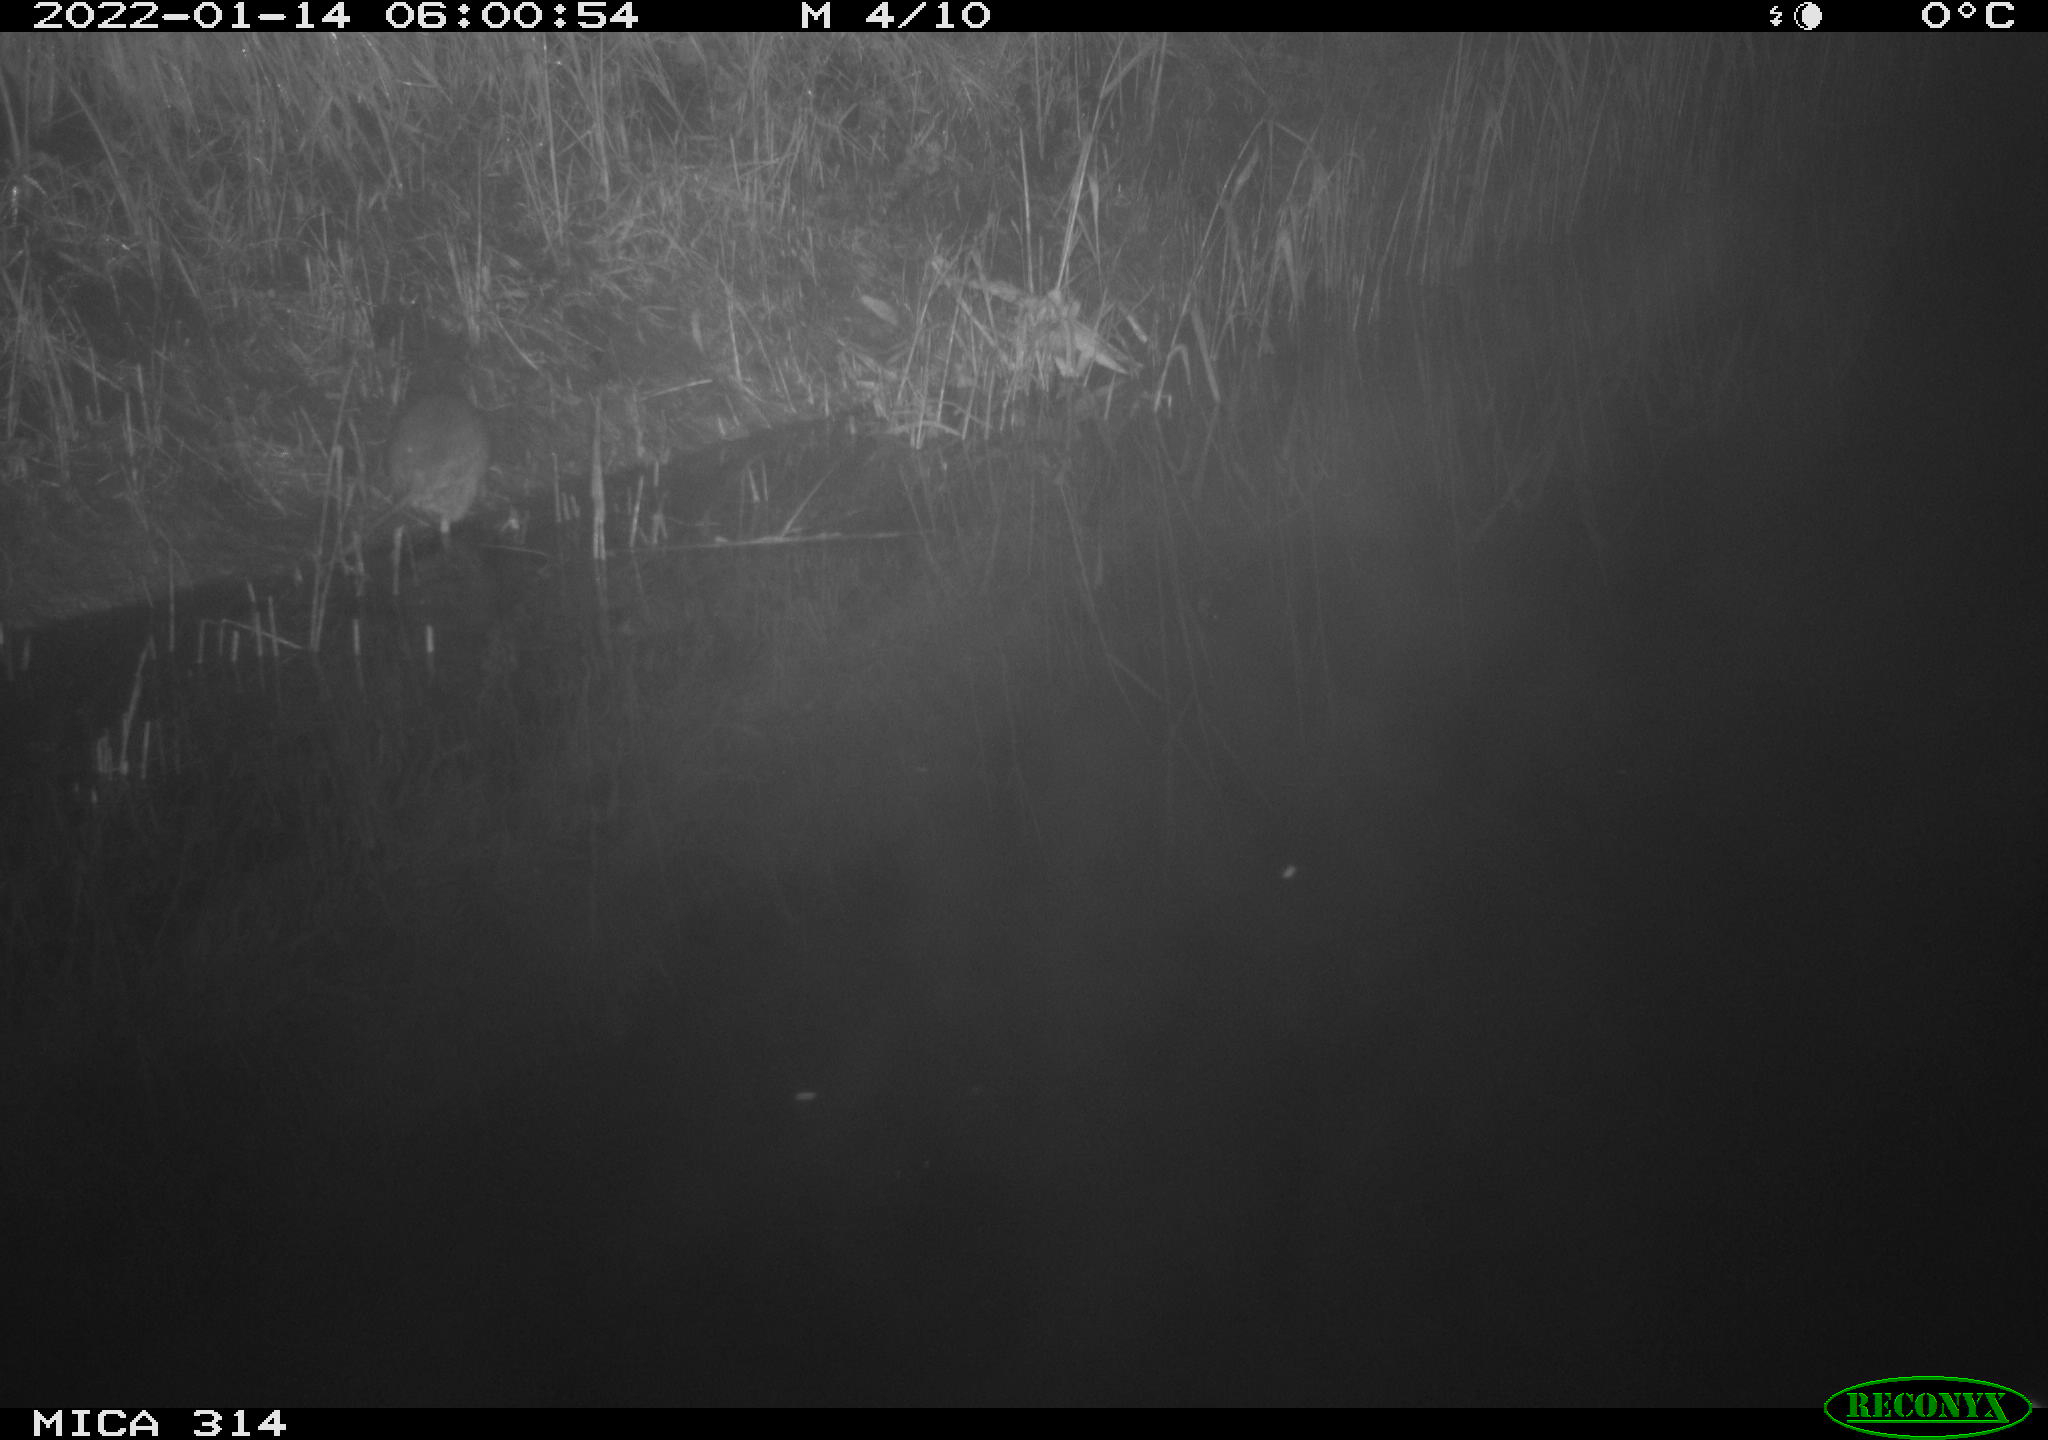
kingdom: Animalia
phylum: Chordata
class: Mammalia
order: Rodentia
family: Muridae
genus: Rattus
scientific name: Rattus norvegicus
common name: Brown rat
